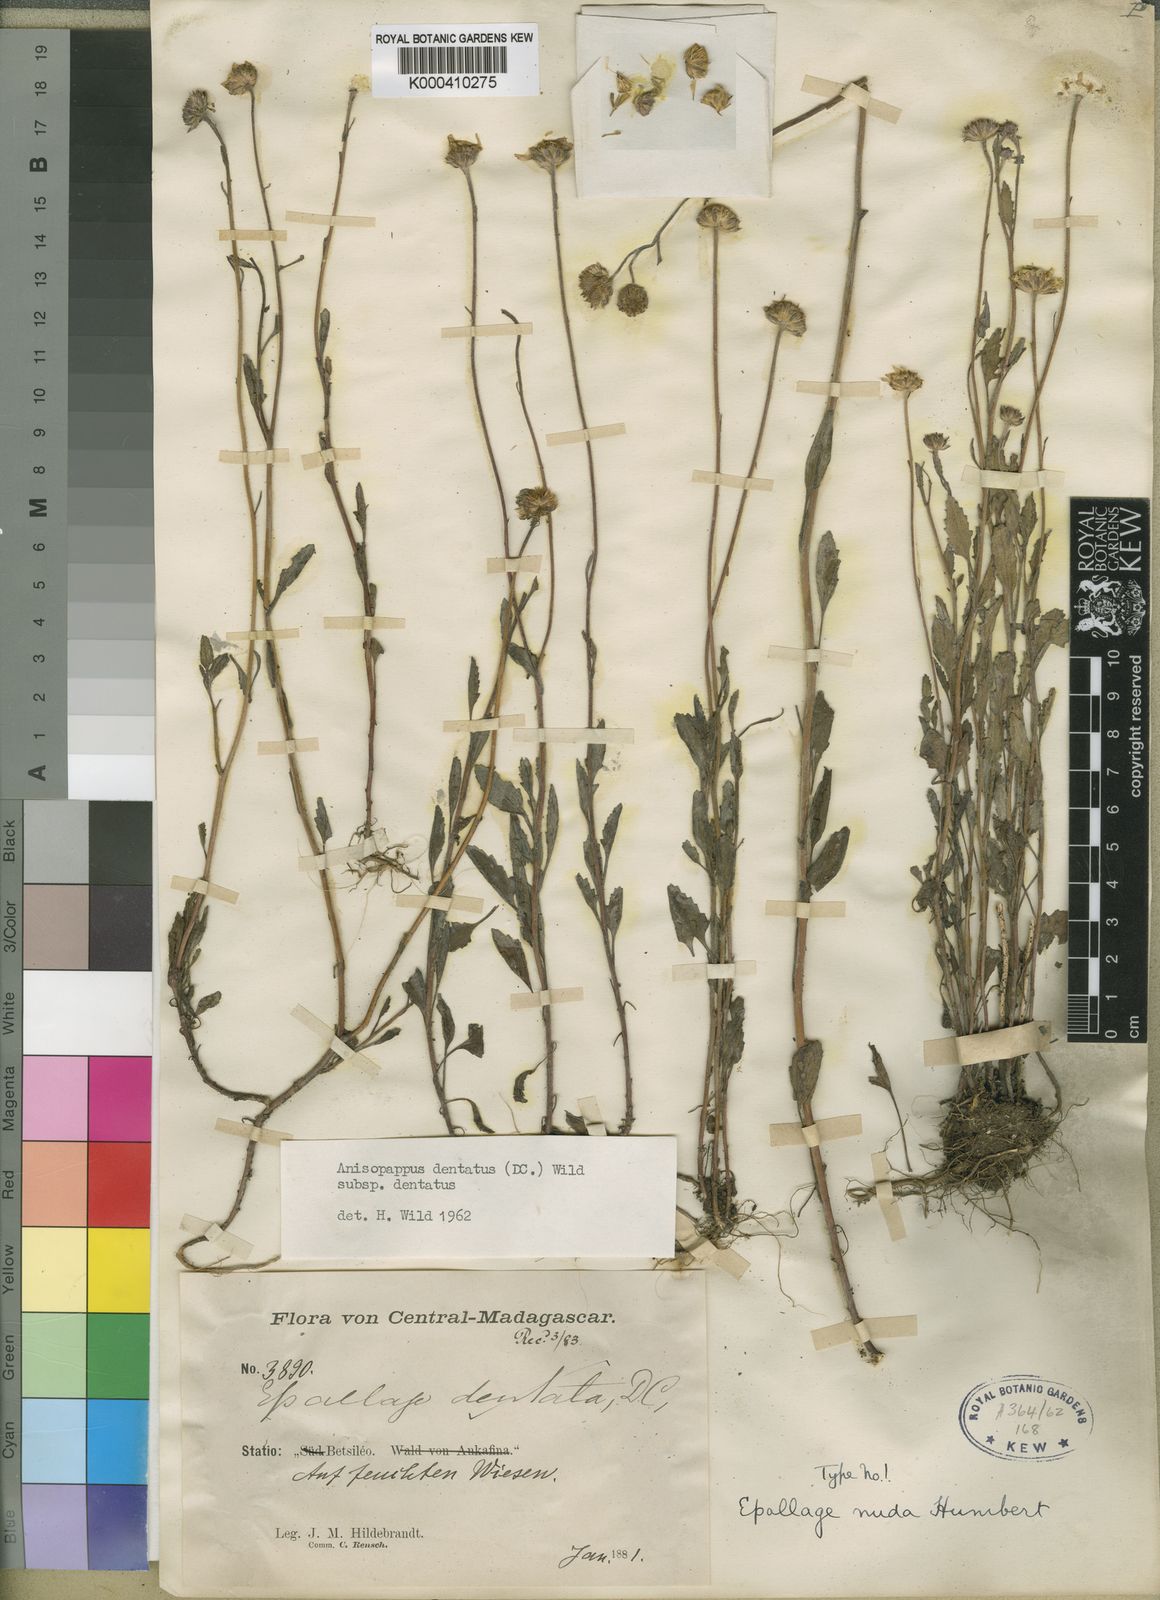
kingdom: Plantae
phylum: Tracheophyta
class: Magnoliopsida
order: Asterales
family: Asteraceae
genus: Anisopappus
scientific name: Anisopappus chinensis
